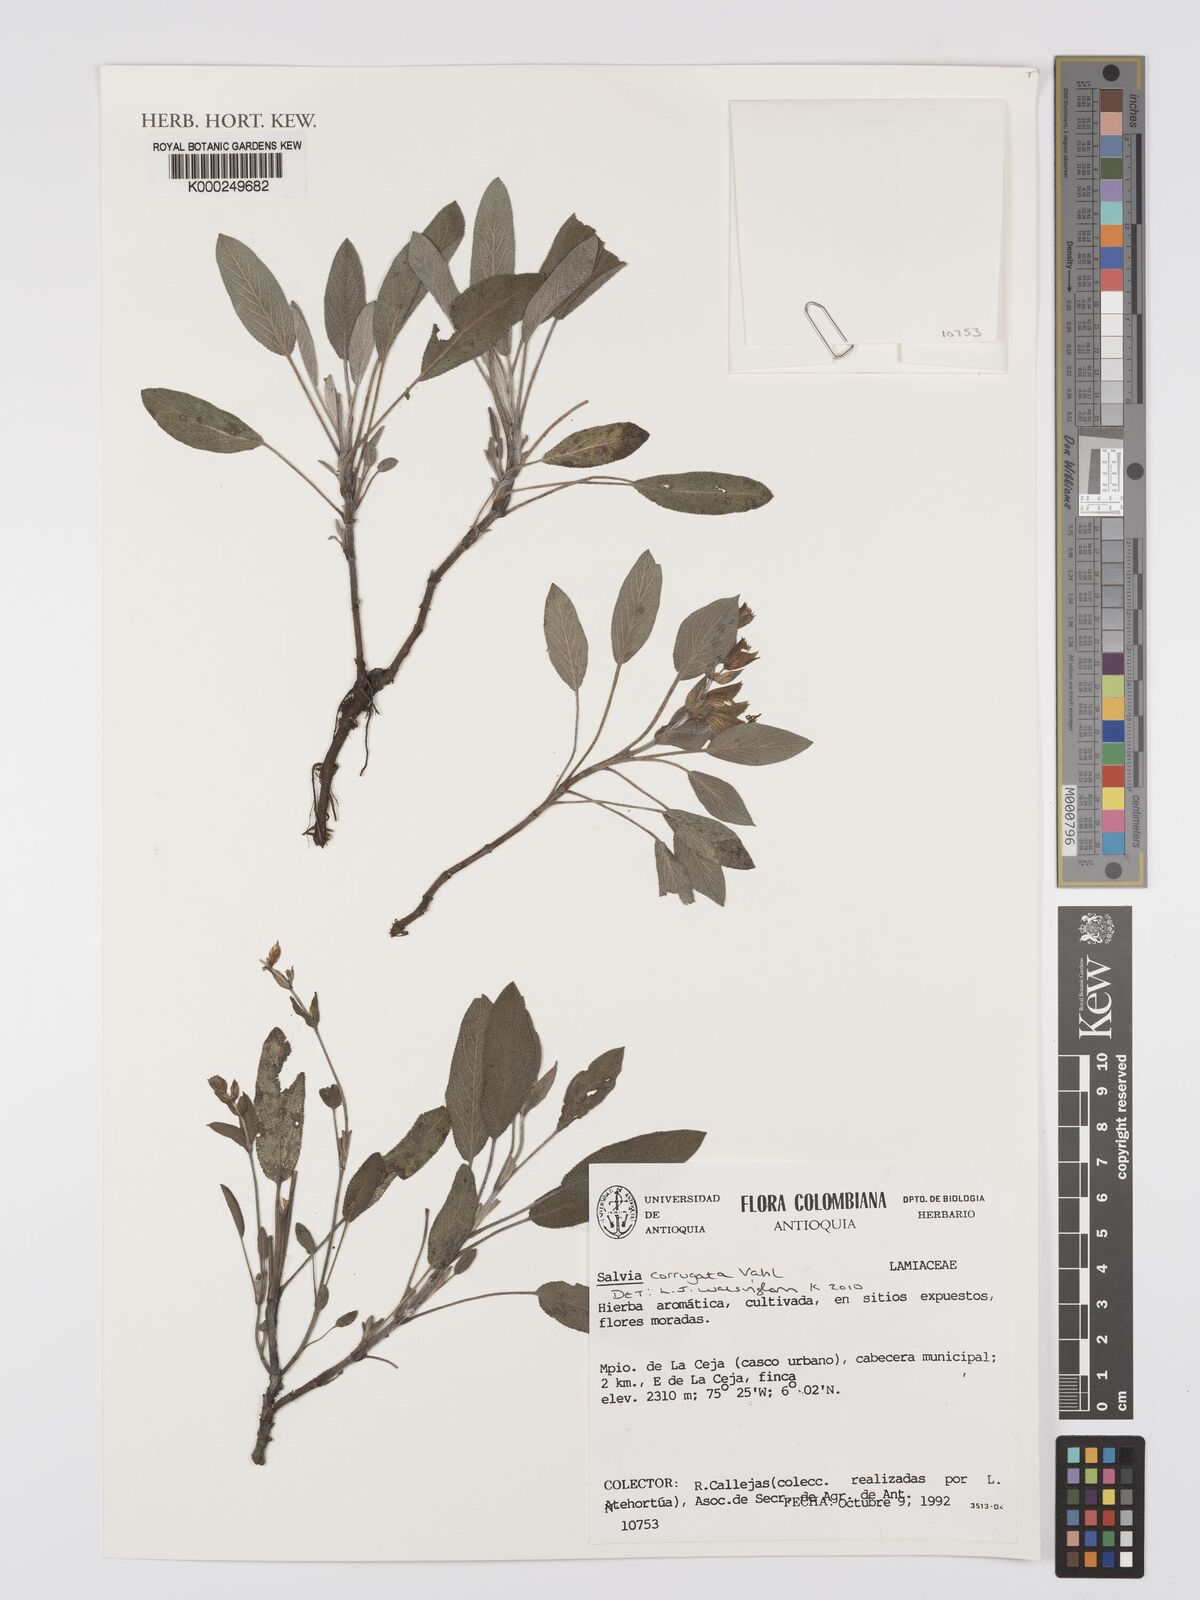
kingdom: Plantae
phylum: Tracheophyta
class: Magnoliopsida
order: Lamiales
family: Lamiaceae
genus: Salvia
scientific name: Salvia corrugata
